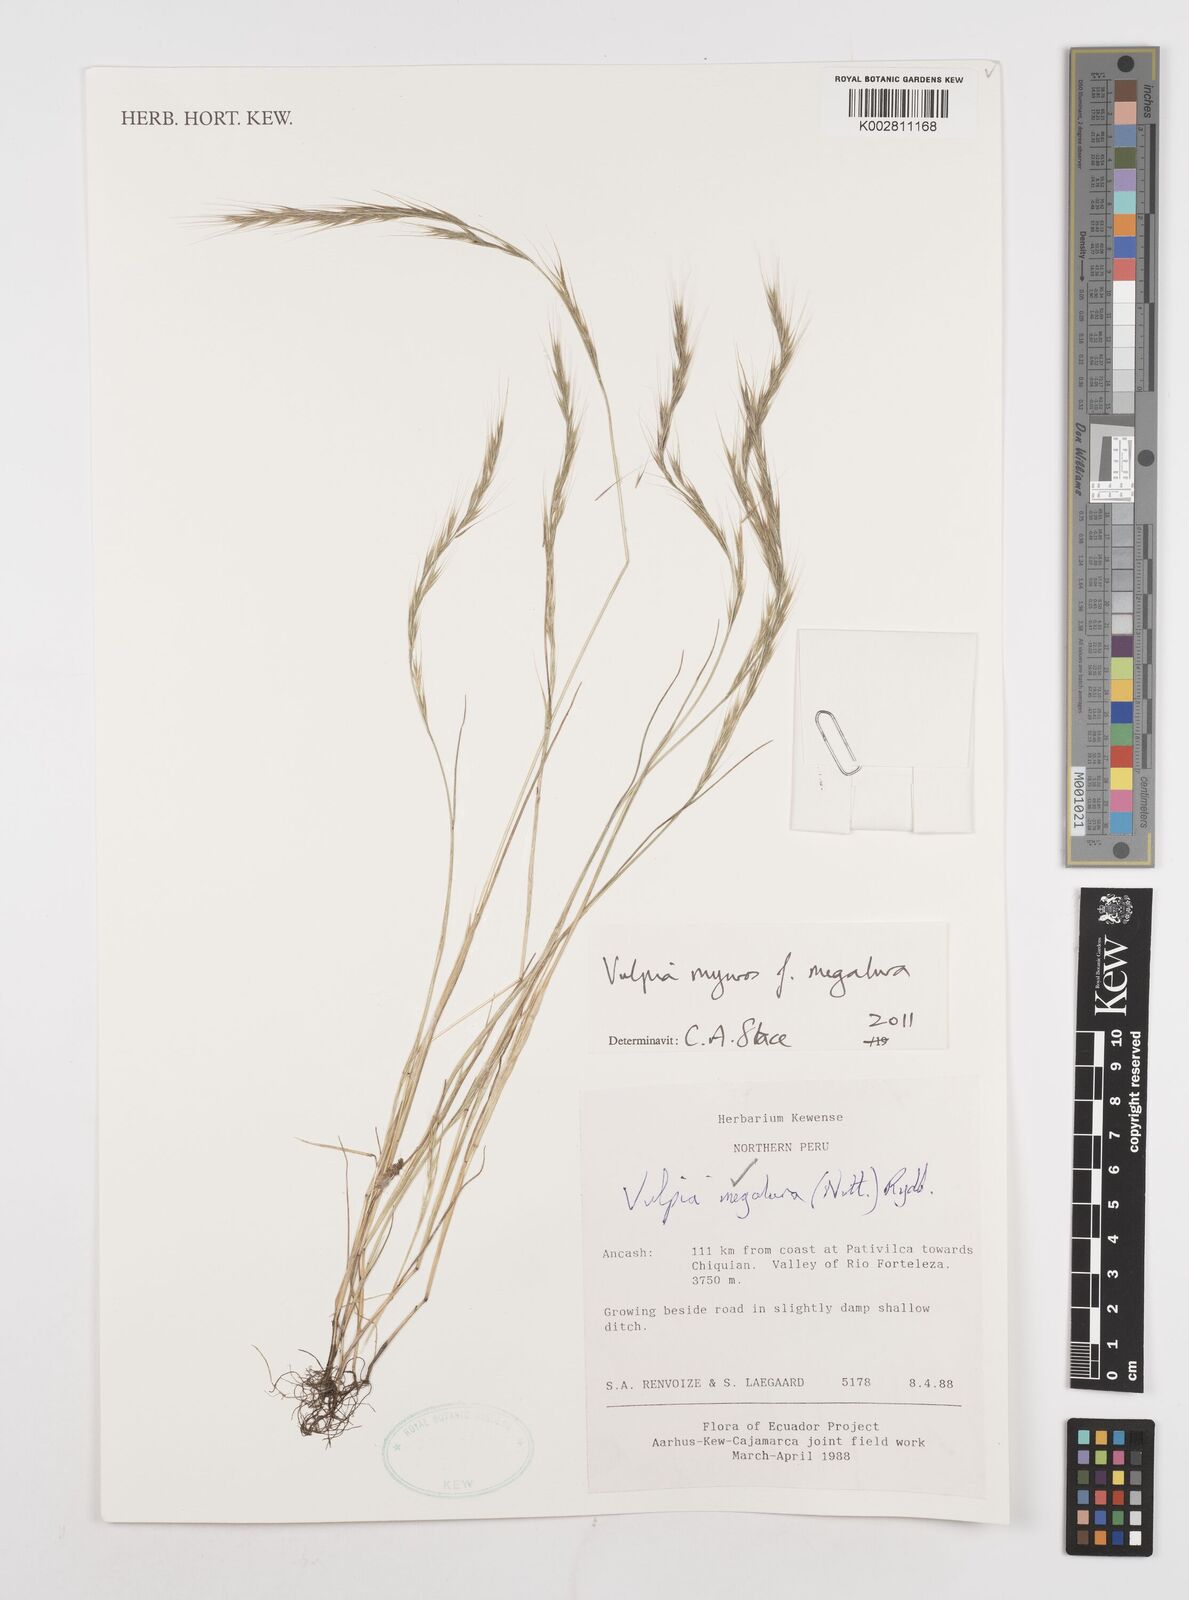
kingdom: Plantae
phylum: Tracheophyta
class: Liliopsida
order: Poales
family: Poaceae
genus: Festuca
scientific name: Festuca myuros
